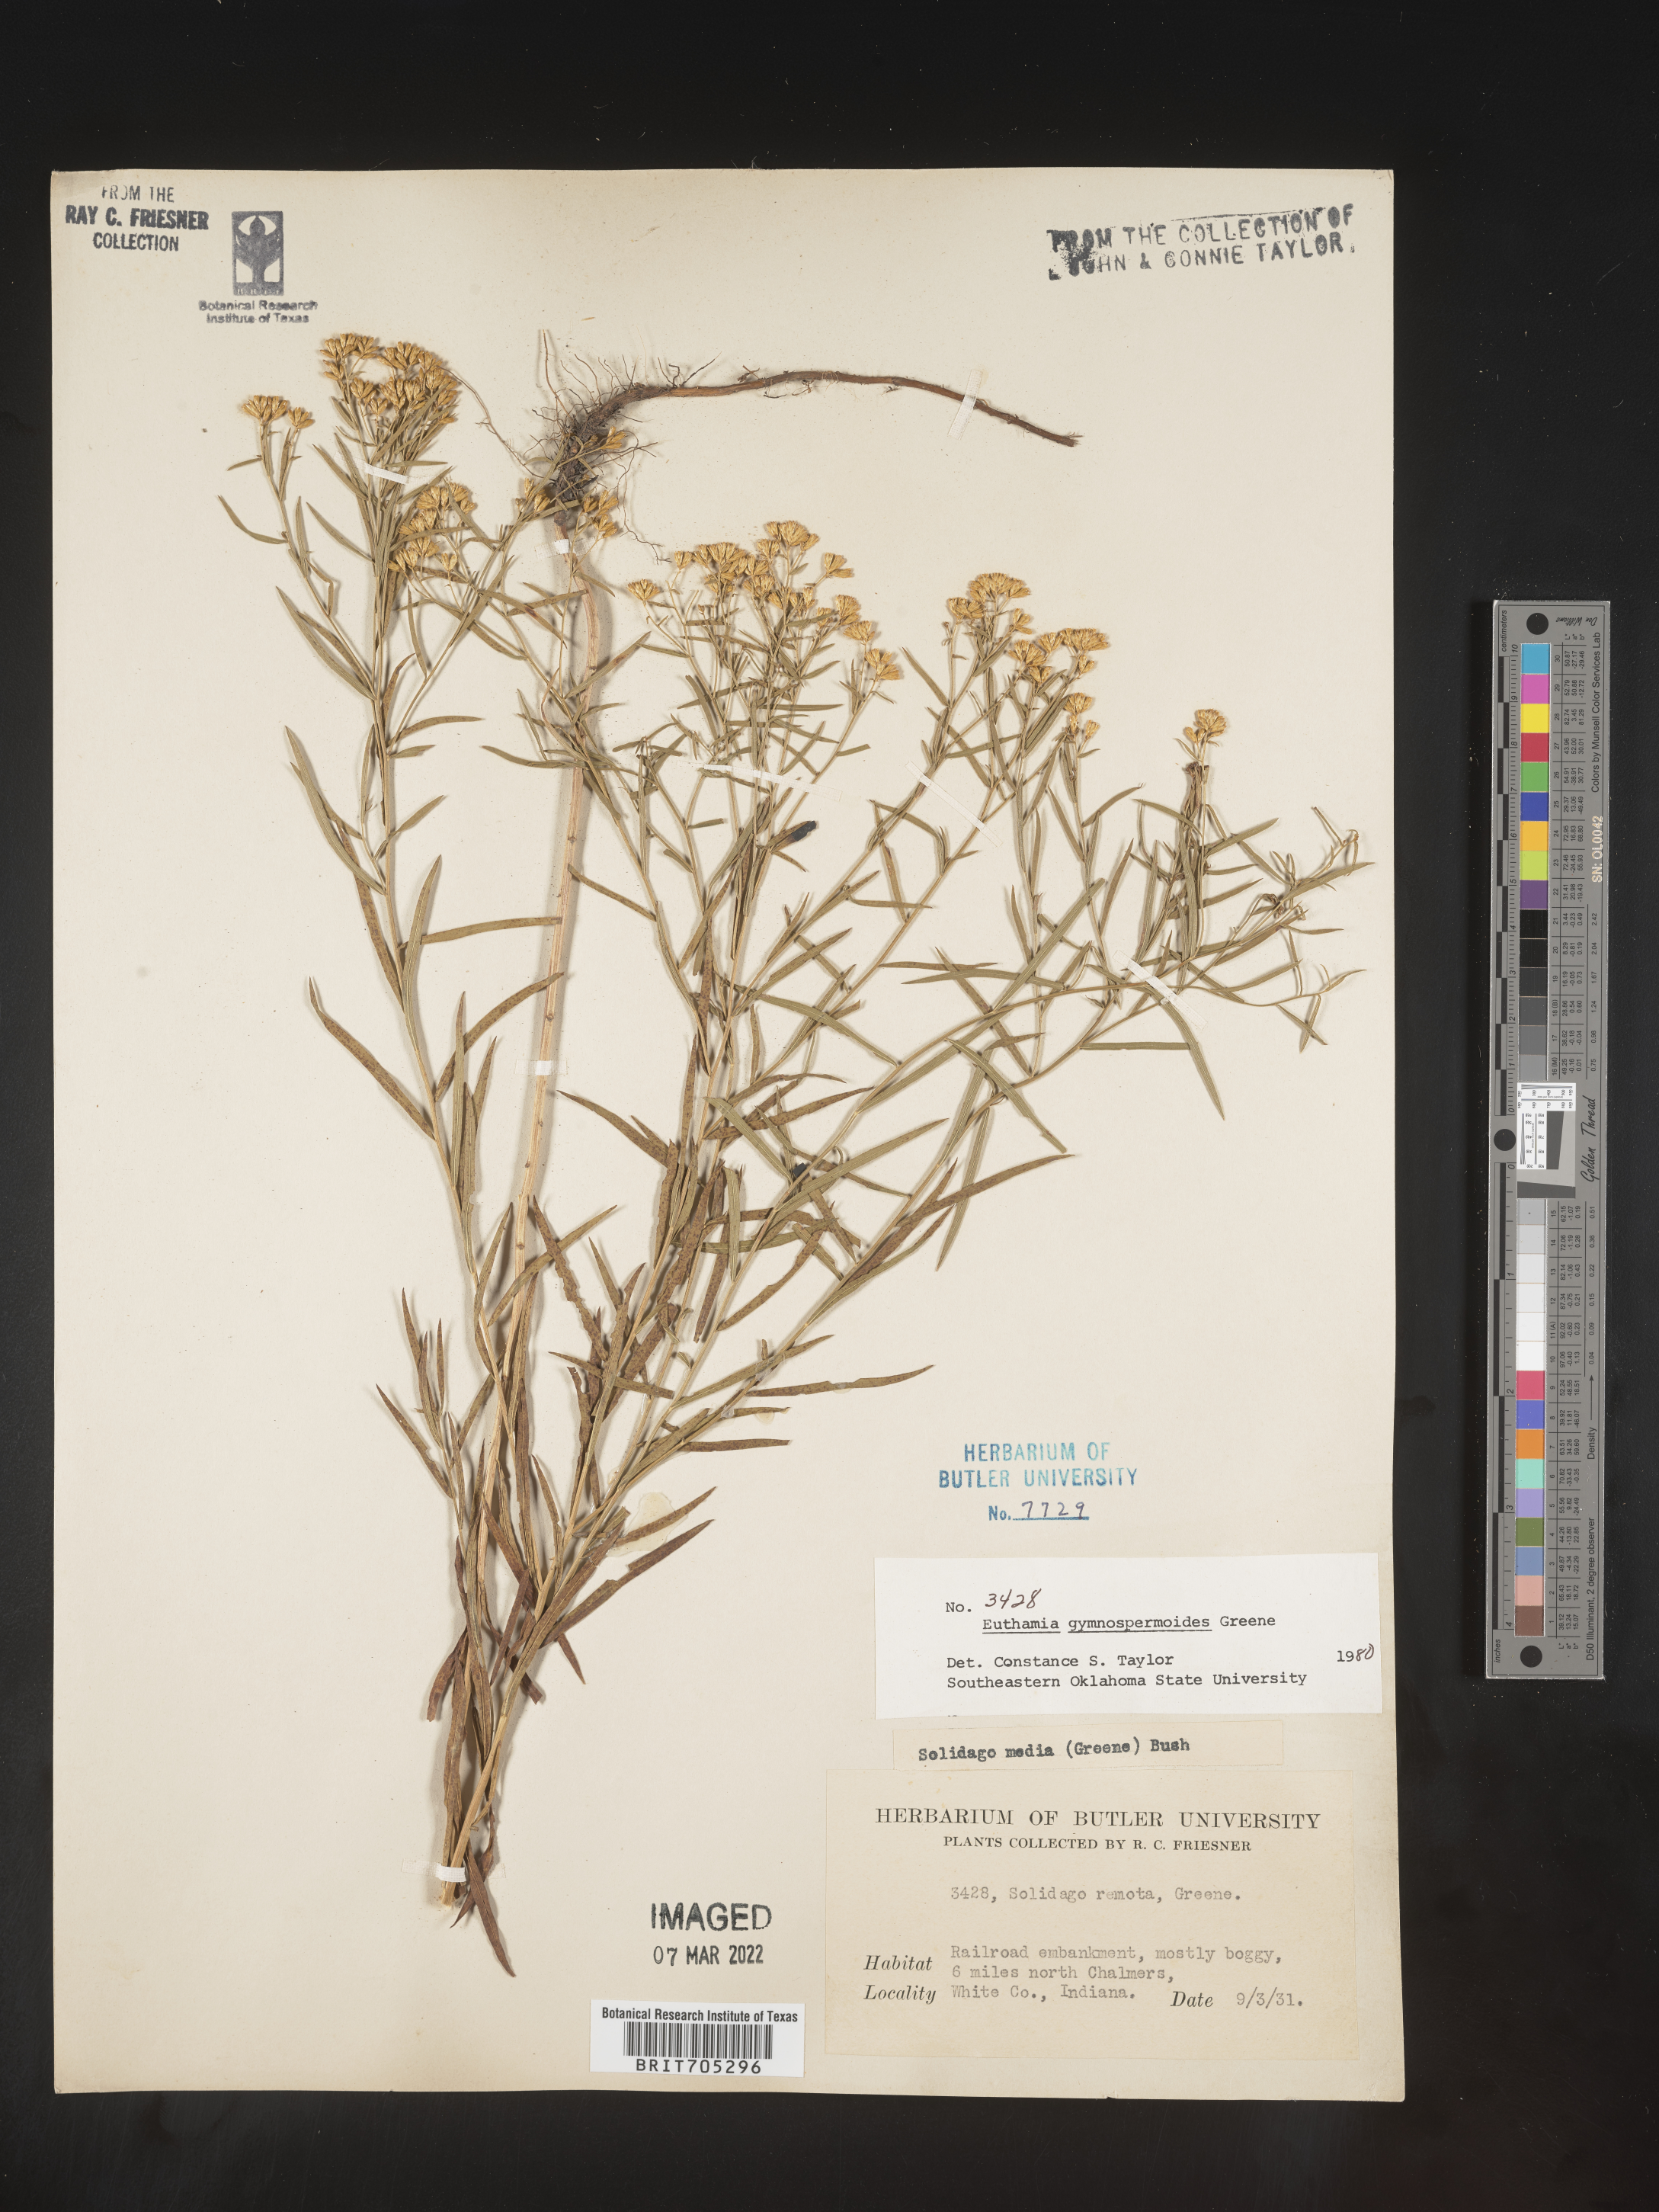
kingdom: Plantae
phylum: Tracheophyta
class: Magnoliopsida
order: Asterales
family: Asteraceae
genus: Euthamia
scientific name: Euthamia gymnospermoides
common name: Great plains goldentop
